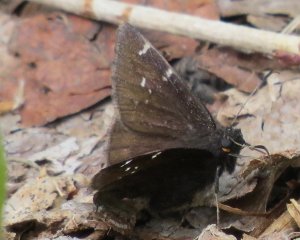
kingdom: Animalia
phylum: Arthropoda
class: Insecta
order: Lepidoptera
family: Hesperiidae
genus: Autochton
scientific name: Autochton
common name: Northern Cloudywing
